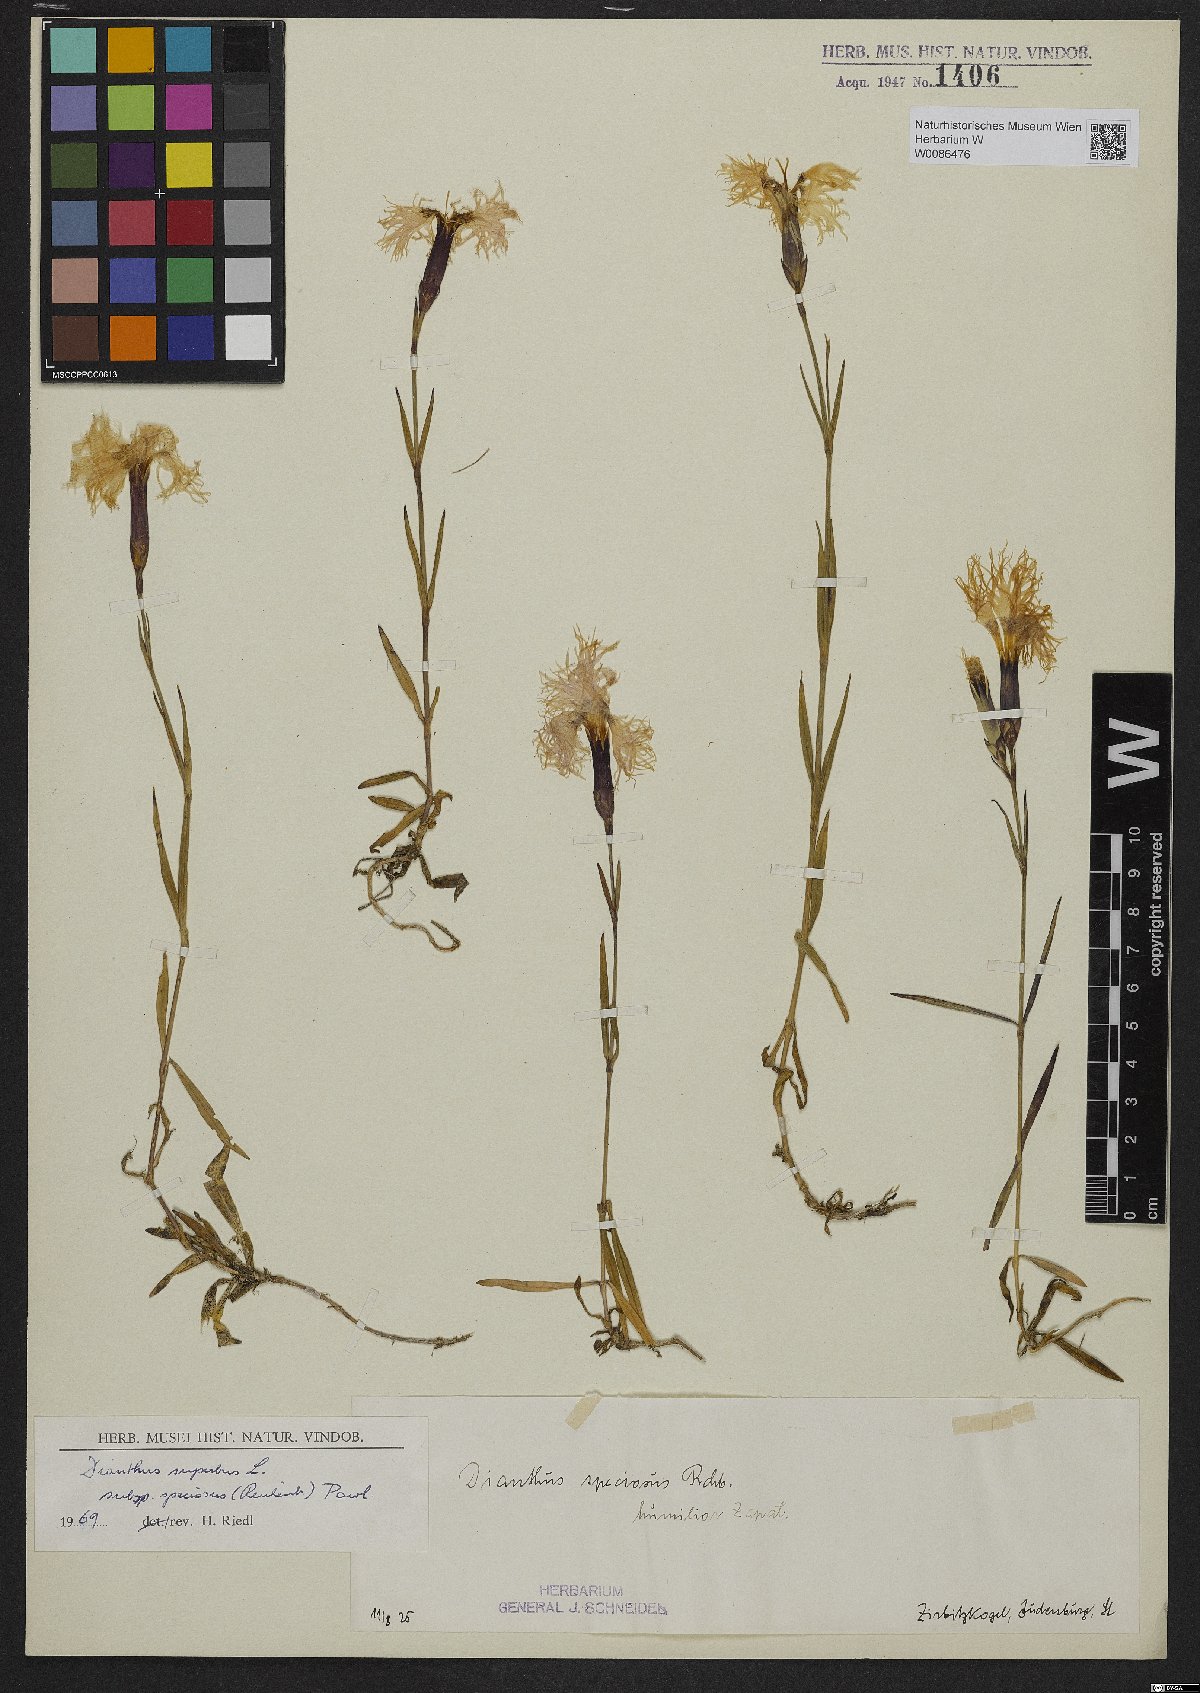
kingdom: Plantae
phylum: Tracheophyta
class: Magnoliopsida
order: Caryophyllales
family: Caryophyllaceae
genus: Dianthus
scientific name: Dianthus superbus
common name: Fringed pink
